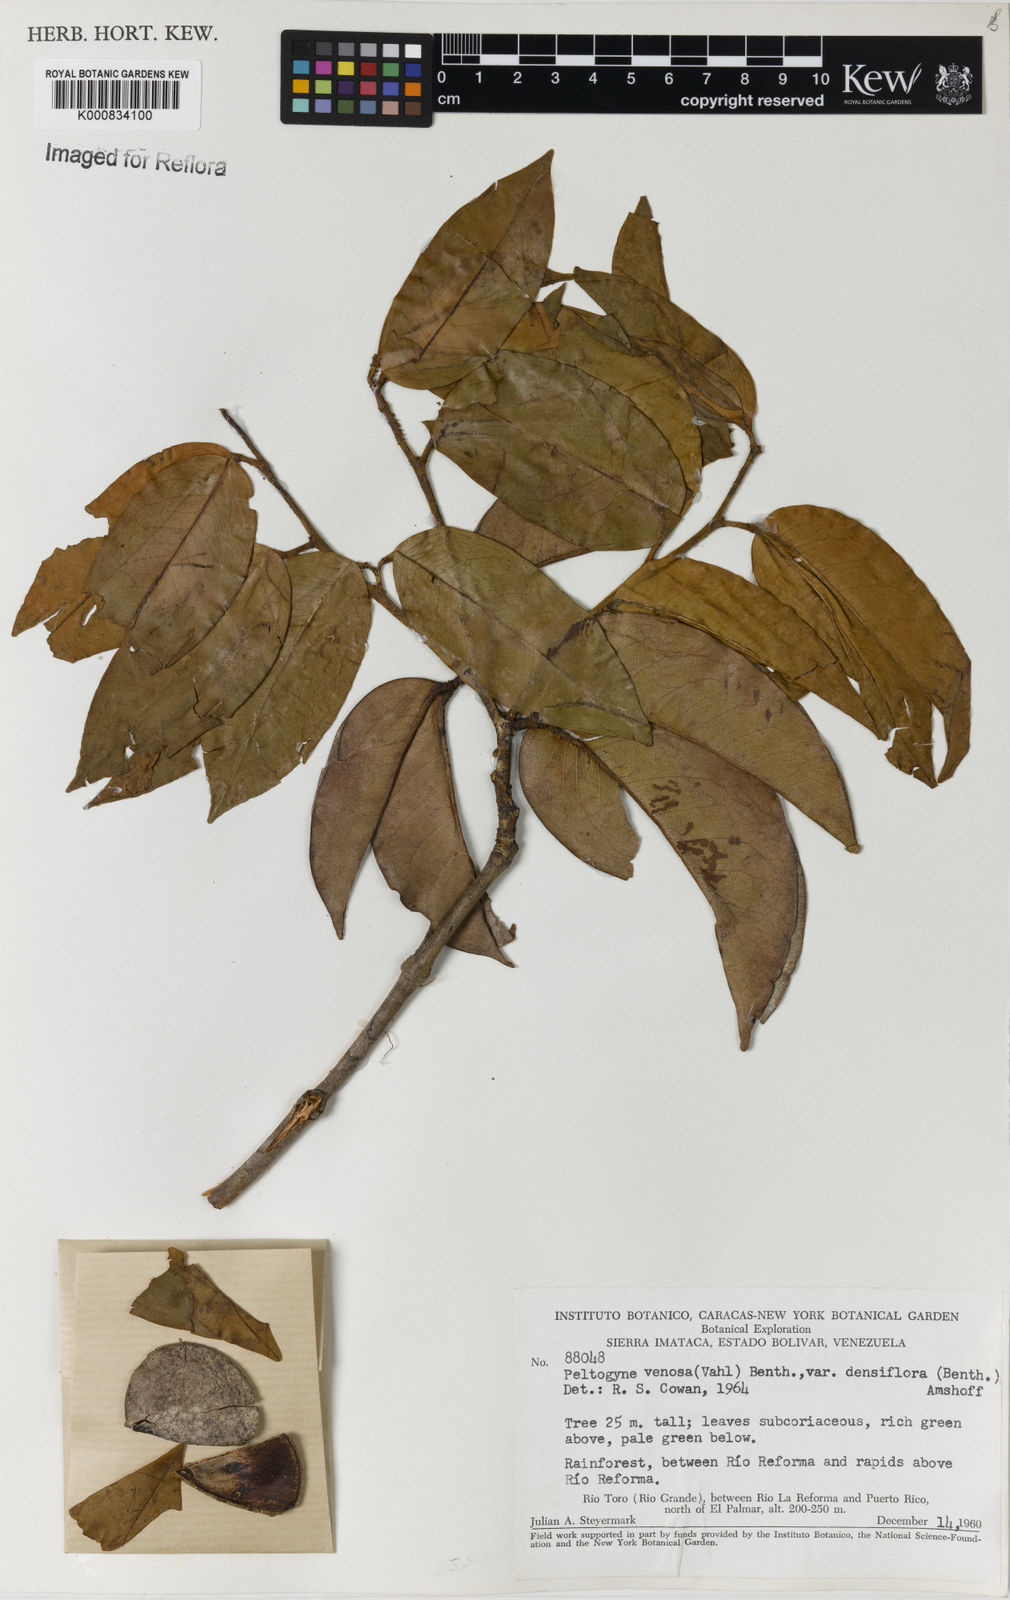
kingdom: Plantae
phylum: Tracheophyta
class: Magnoliopsida
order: Fabales
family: Fabaceae
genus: Peltogyne
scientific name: Peltogyne venosa
